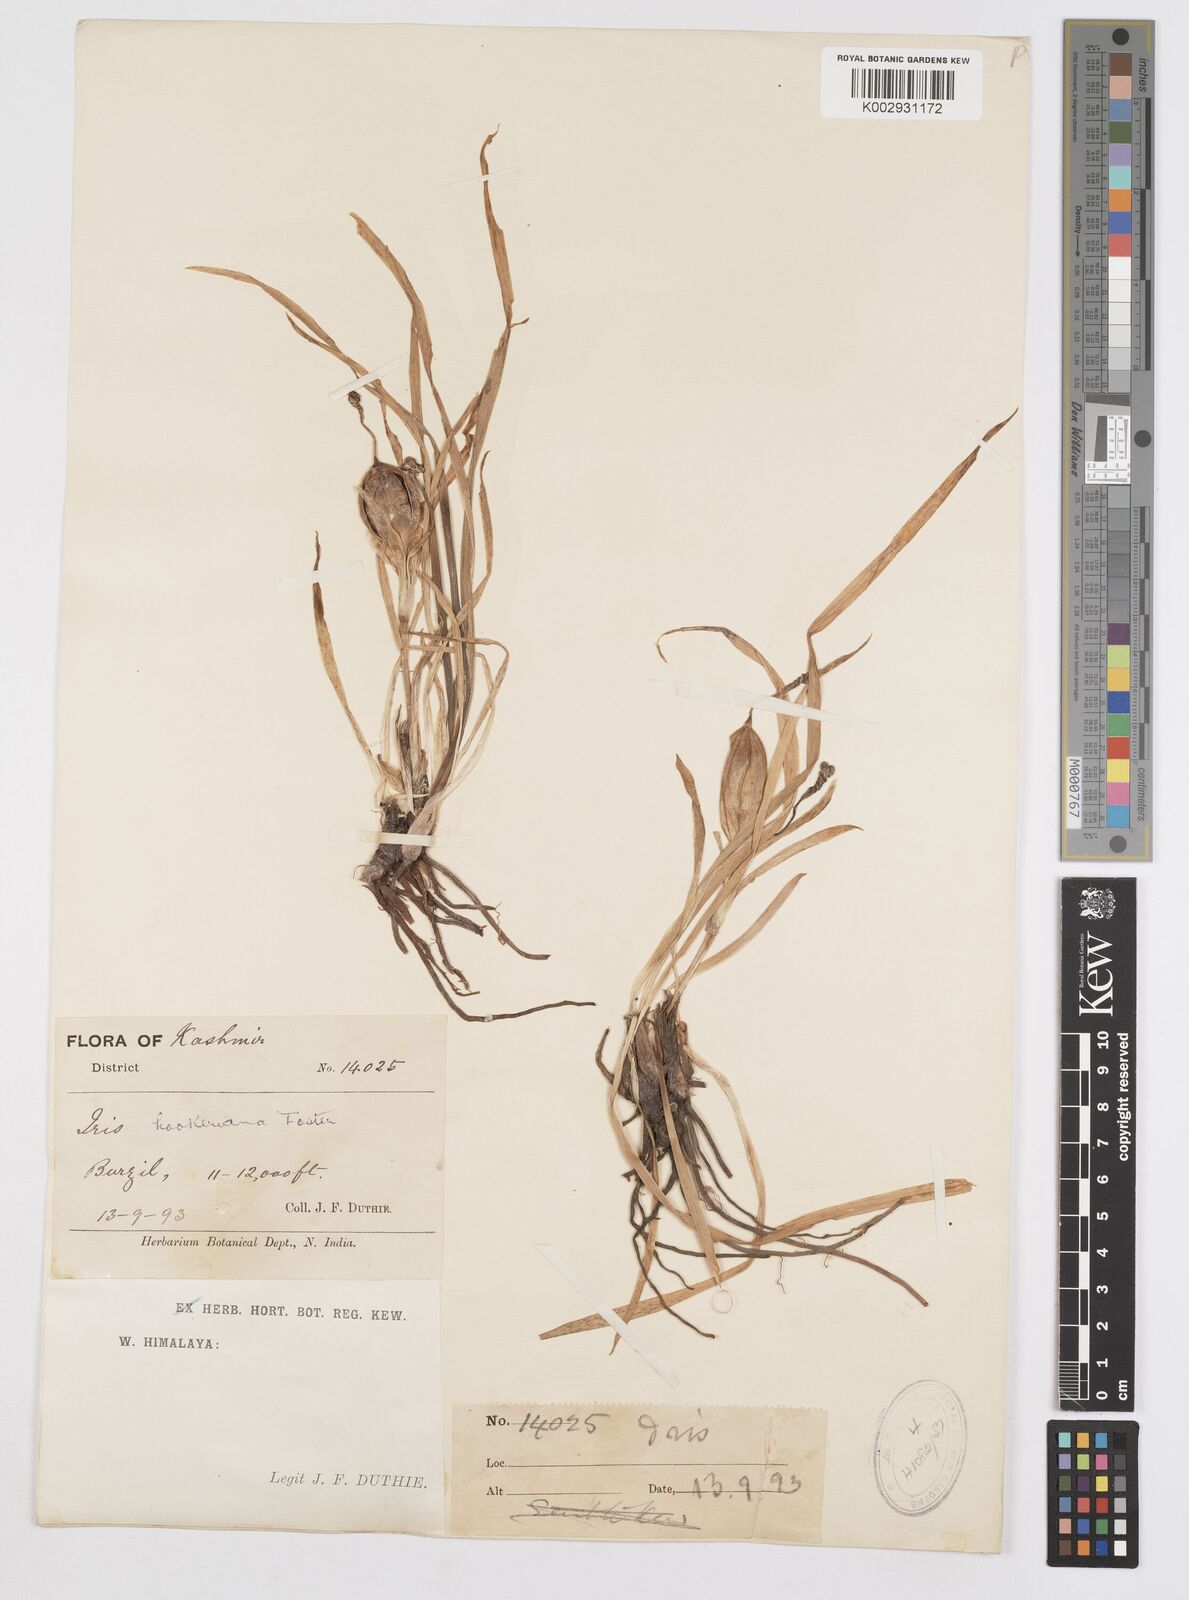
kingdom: Plantae
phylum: Tracheophyta
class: Liliopsida
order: Asparagales
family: Iridaceae
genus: Iris
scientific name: Iris kemaonensis
